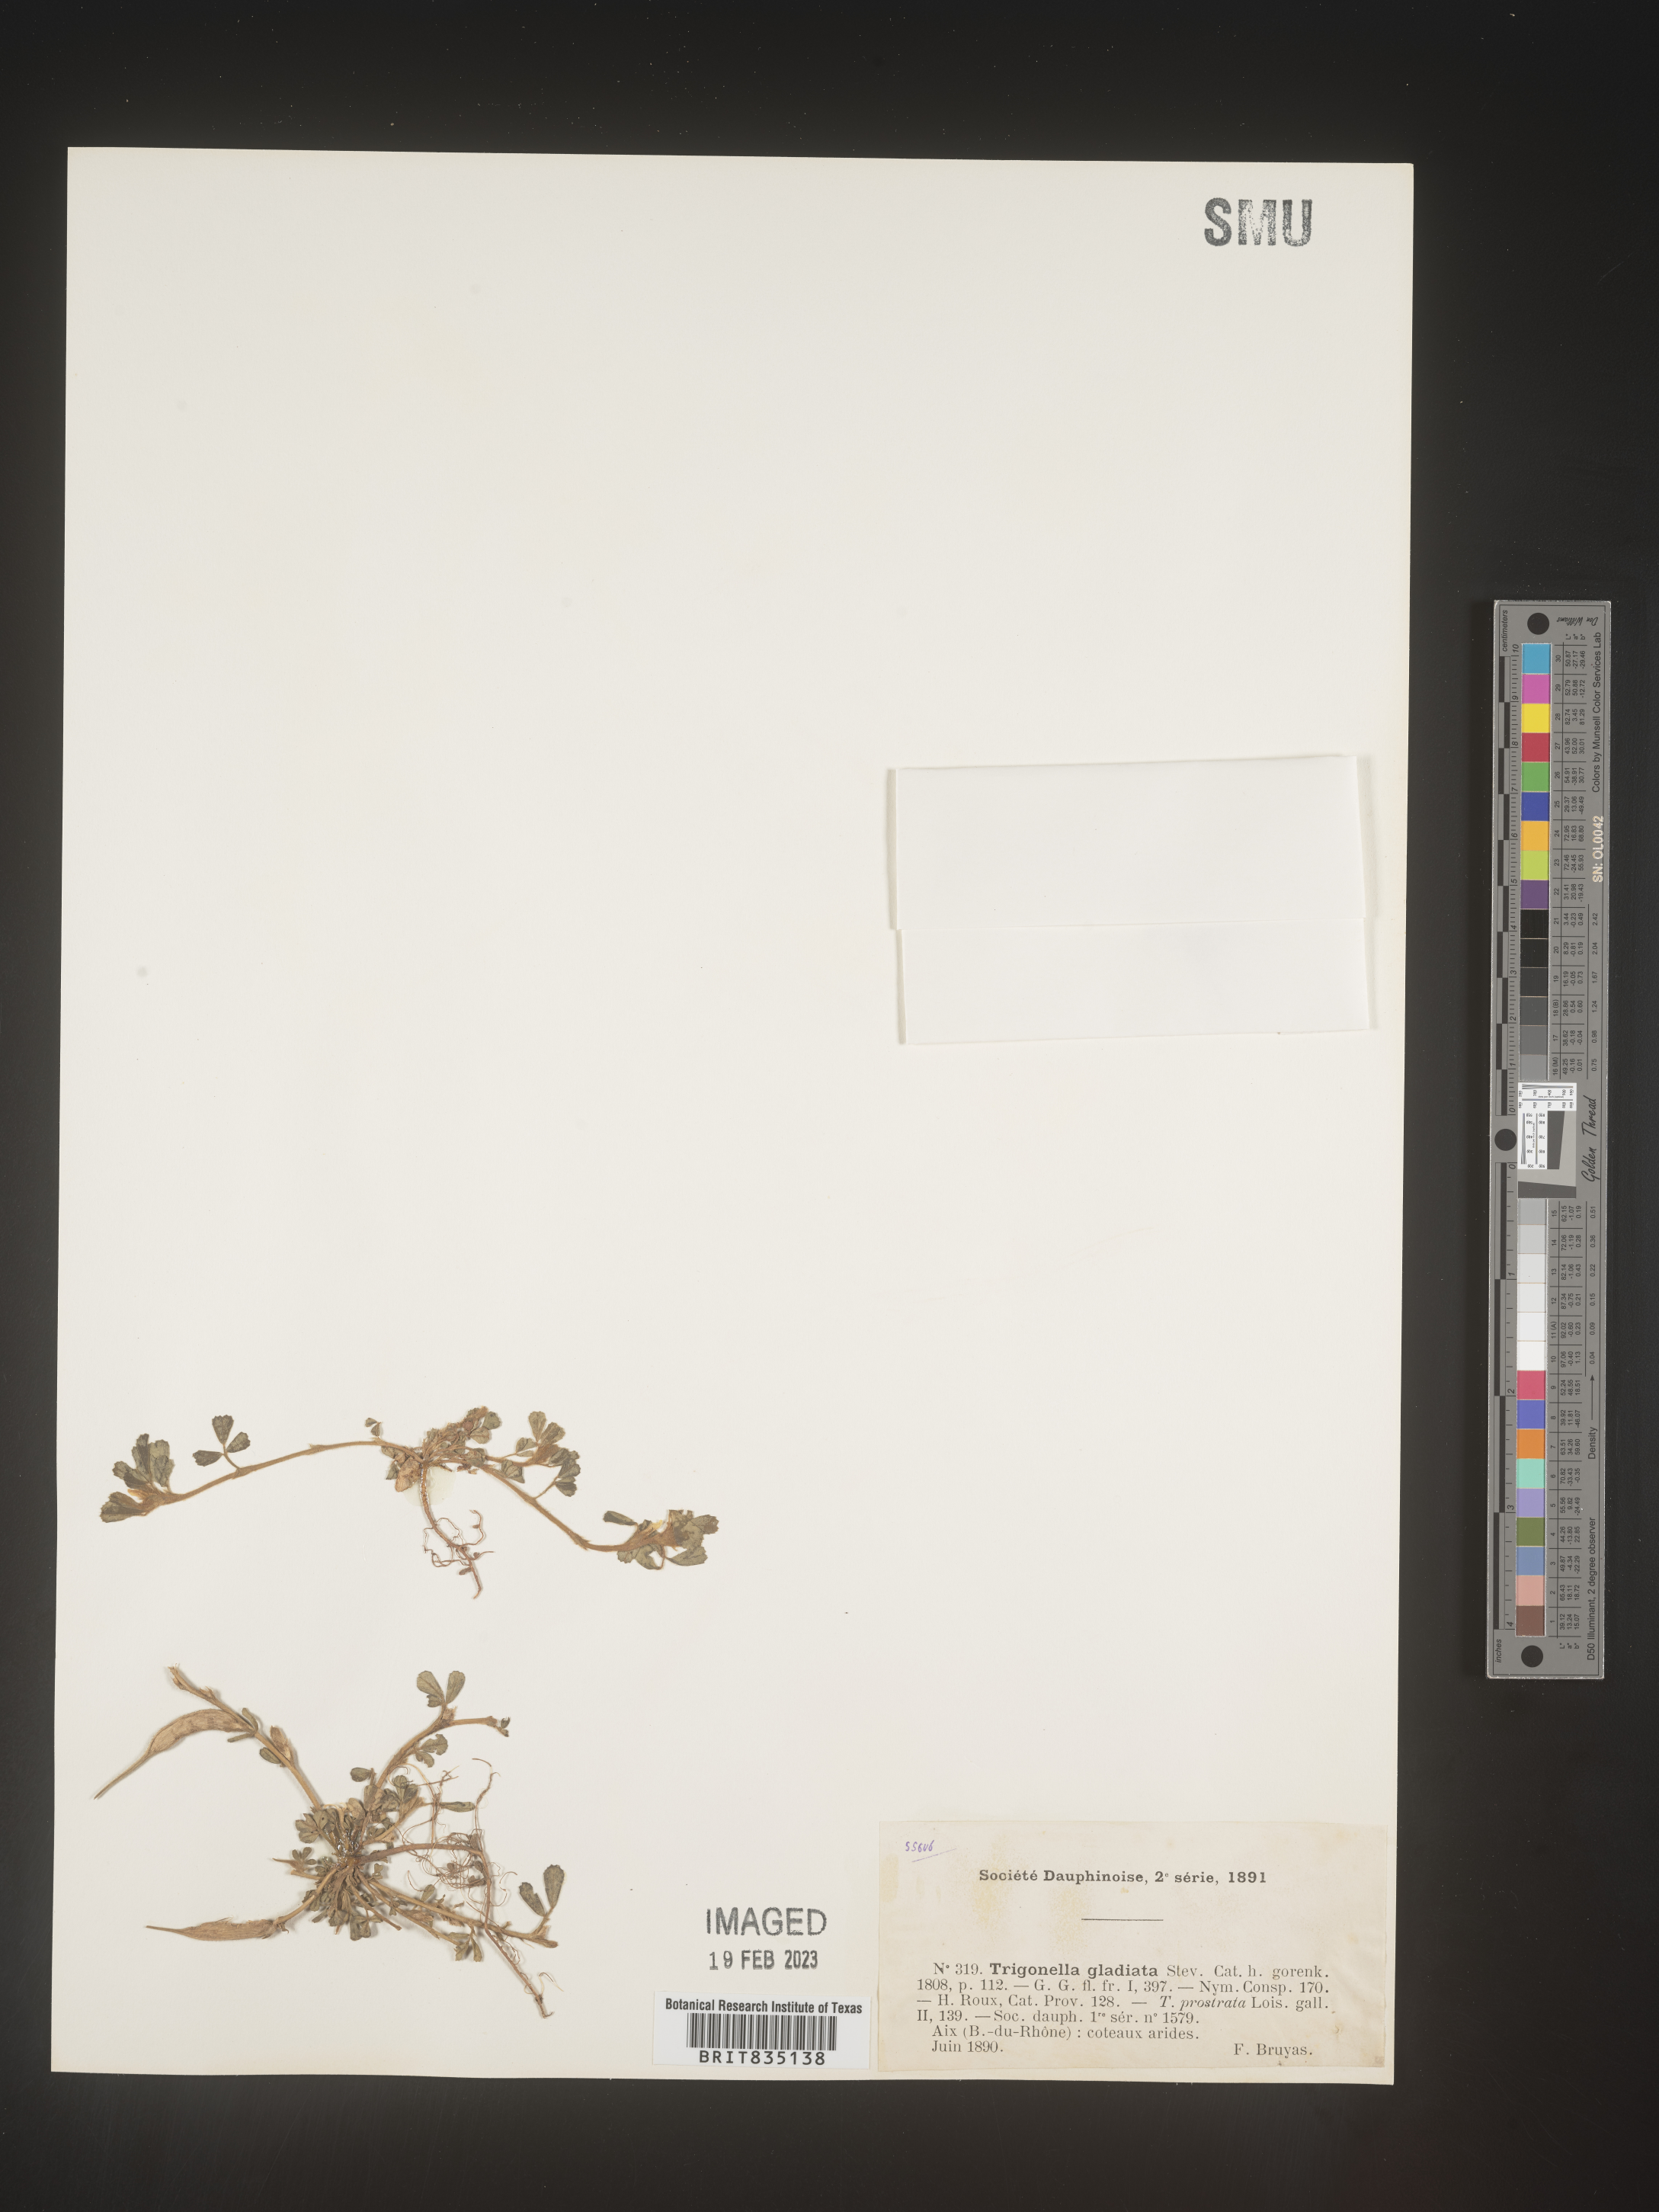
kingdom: Plantae
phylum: Tracheophyta
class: Magnoliopsida
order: Fabales
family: Fabaceae
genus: Trigonella
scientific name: Trigonella
